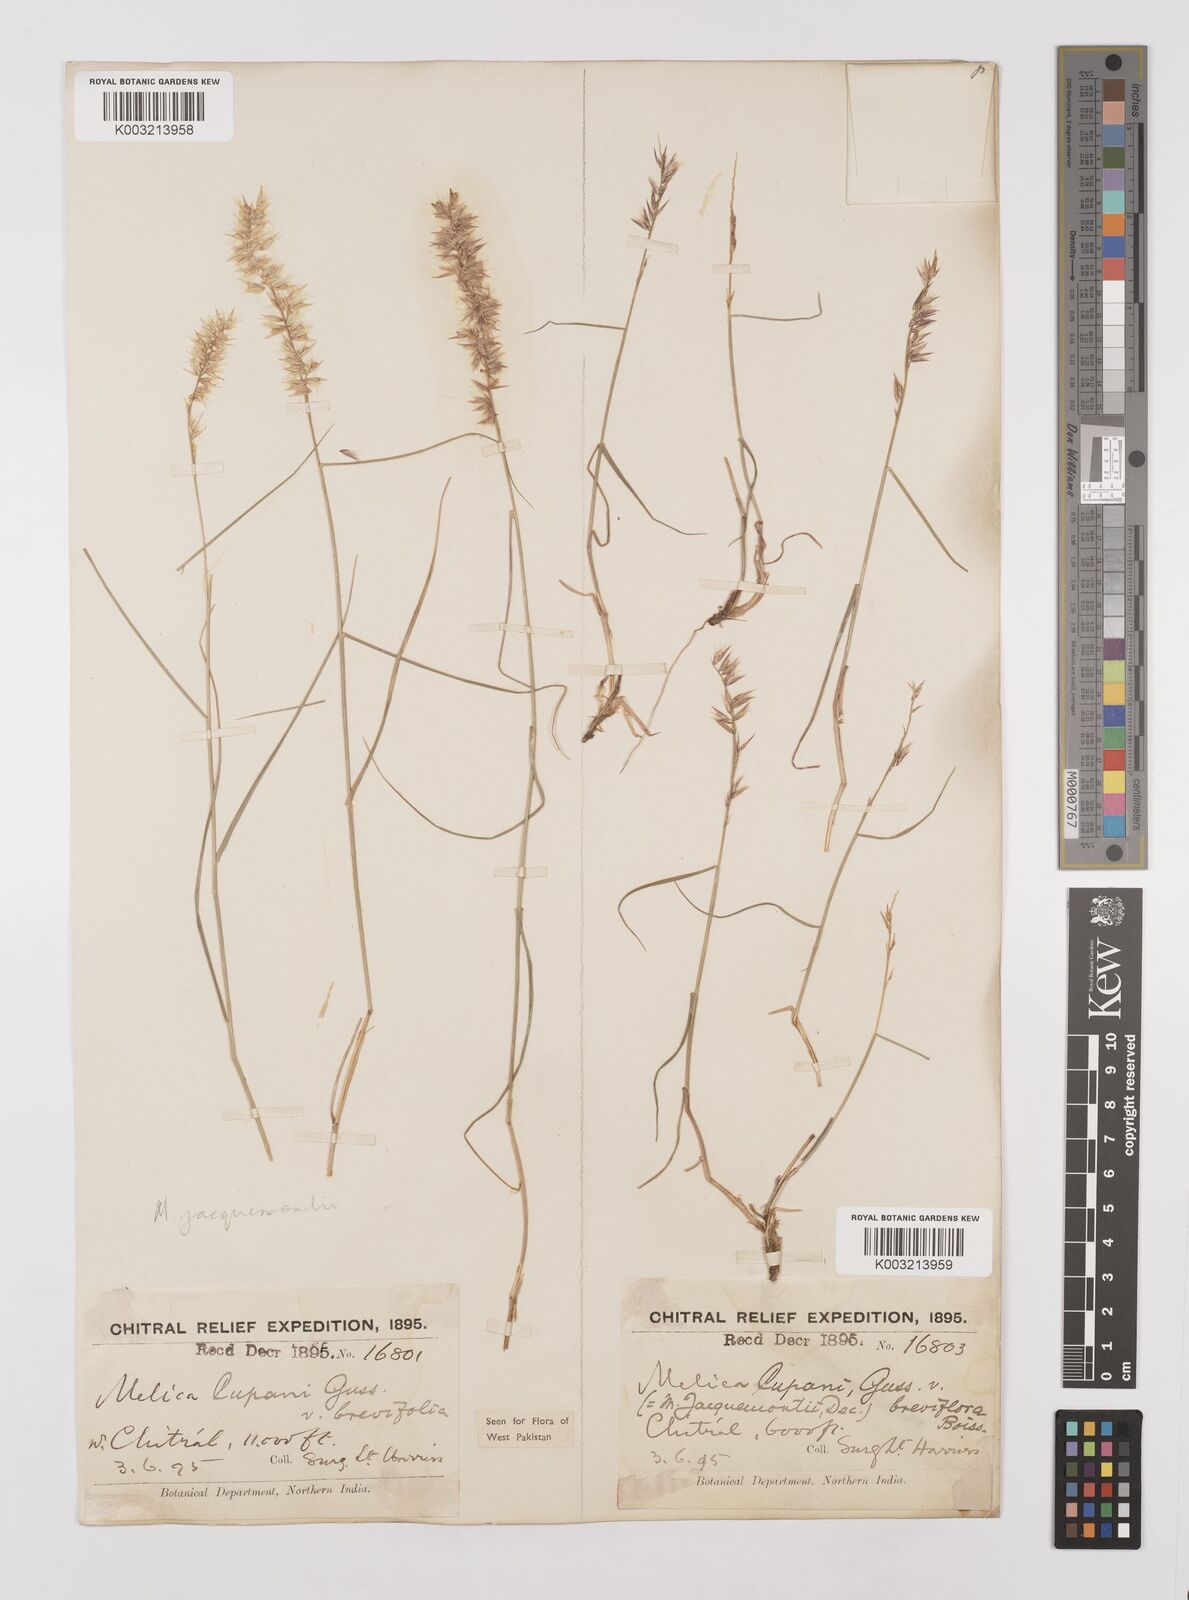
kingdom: Plantae
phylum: Tracheophyta
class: Liliopsida
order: Poales
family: Poaceae
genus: Melica
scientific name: Melica persica
